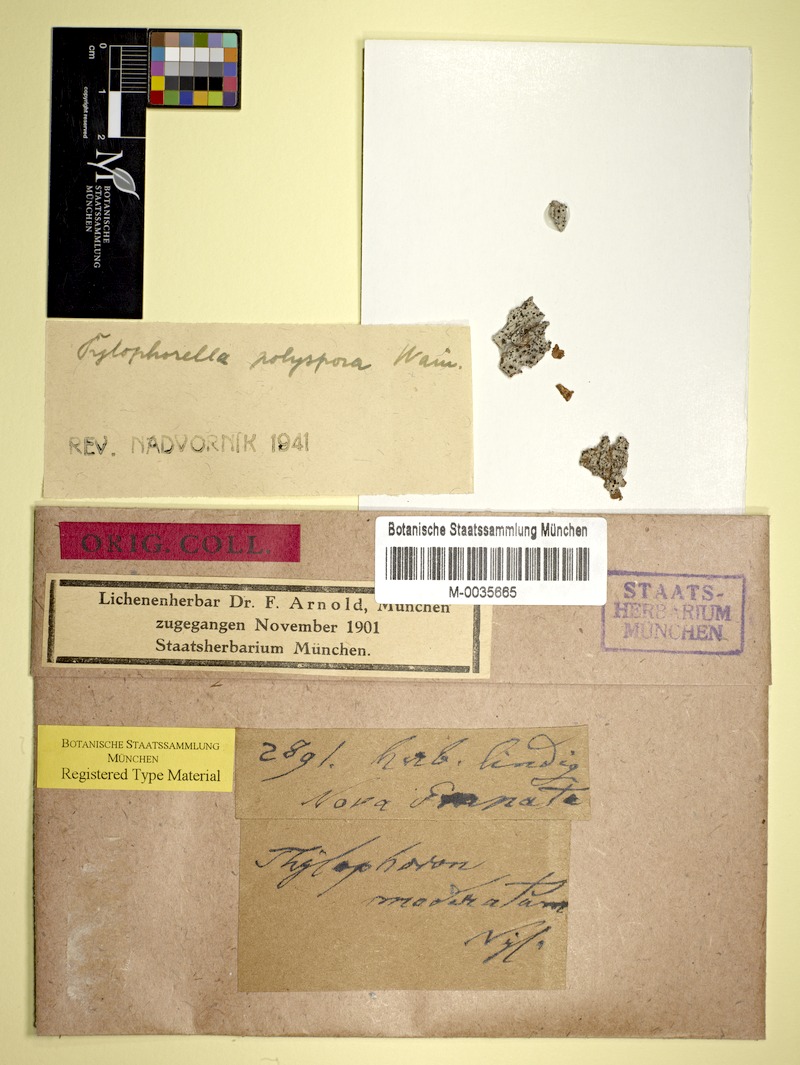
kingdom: Fungi
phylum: Ascomycota
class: Arthoniomycetes
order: Arthoniales
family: Arthoniaceae
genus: Tylophorella
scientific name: Tylophorella pyrenocarpoides
